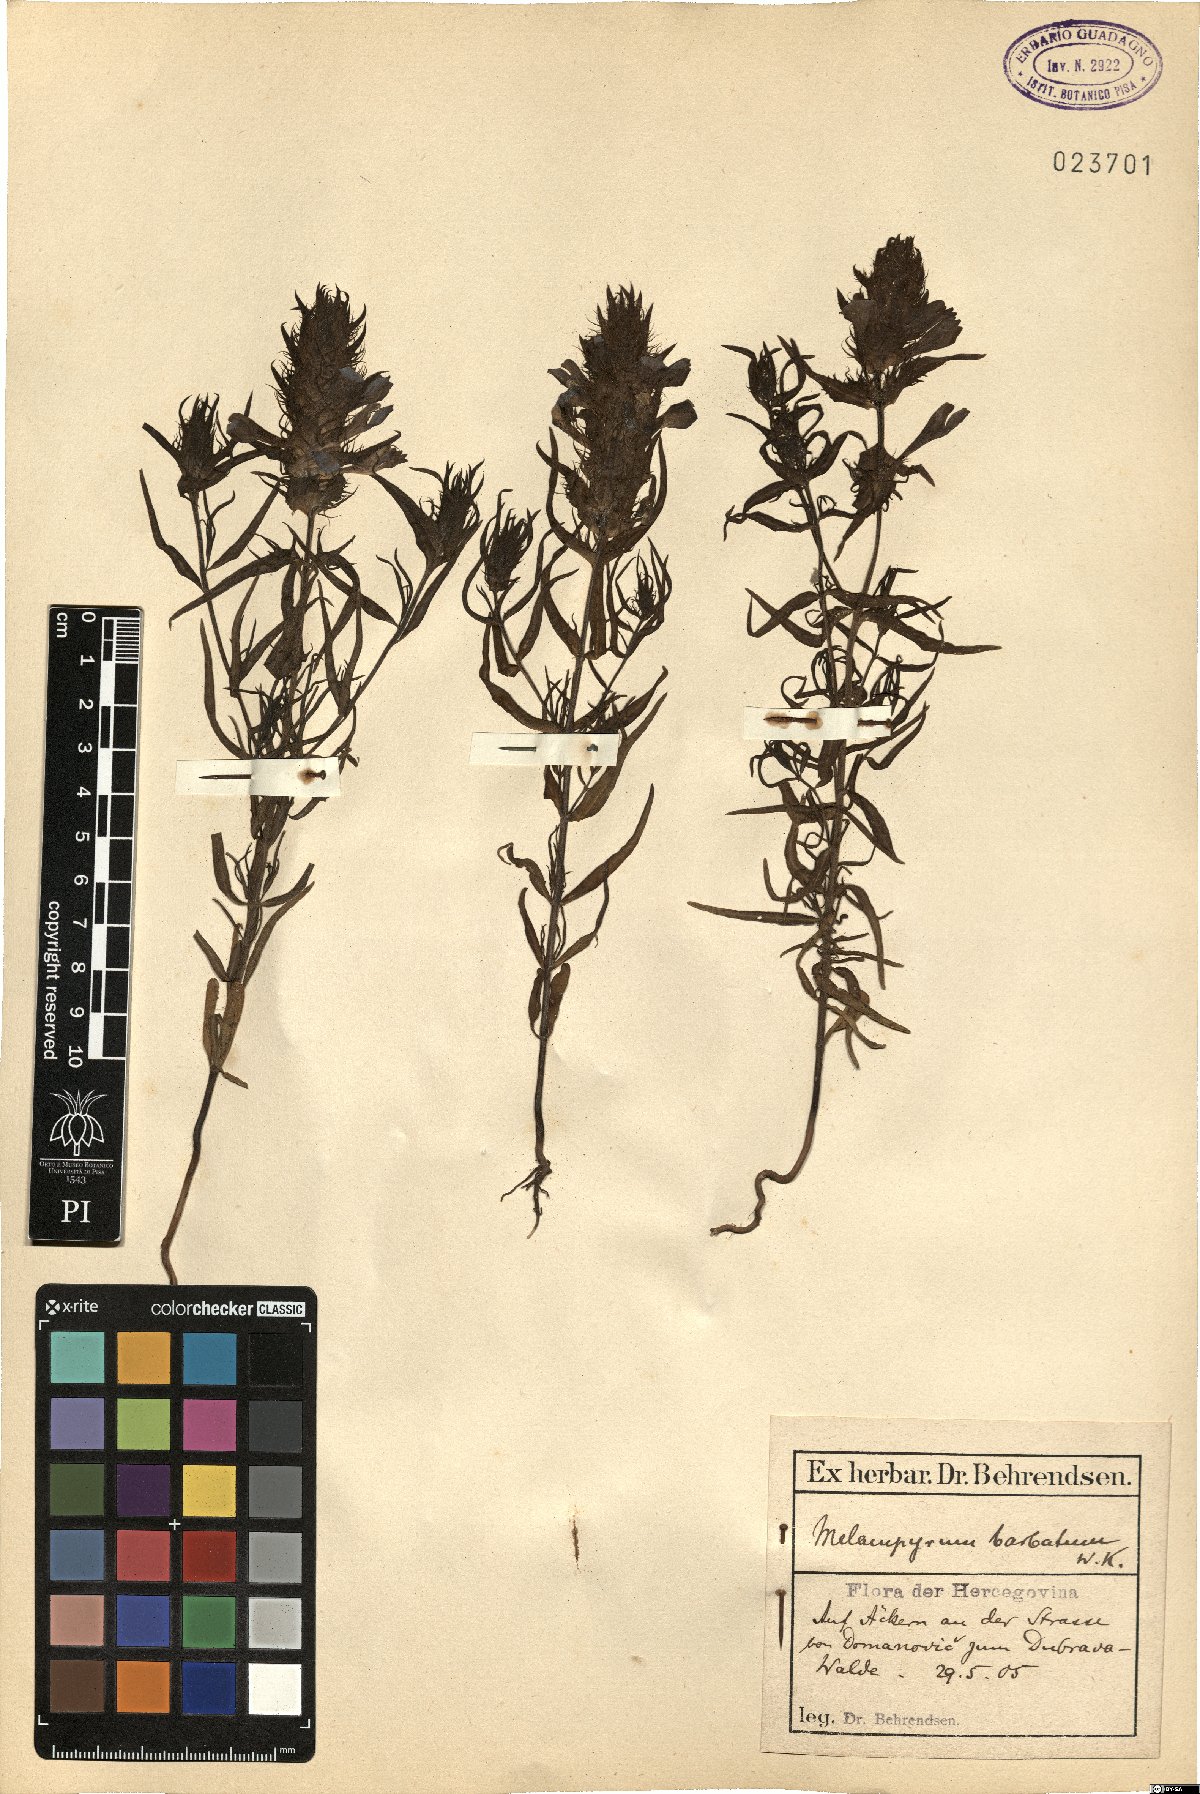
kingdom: Plantae
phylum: Tracheophyta
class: Magnoliopsida
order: Lamiales
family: Orobanchaceae
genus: Melampyrum
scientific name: Melampyrum barbatum
